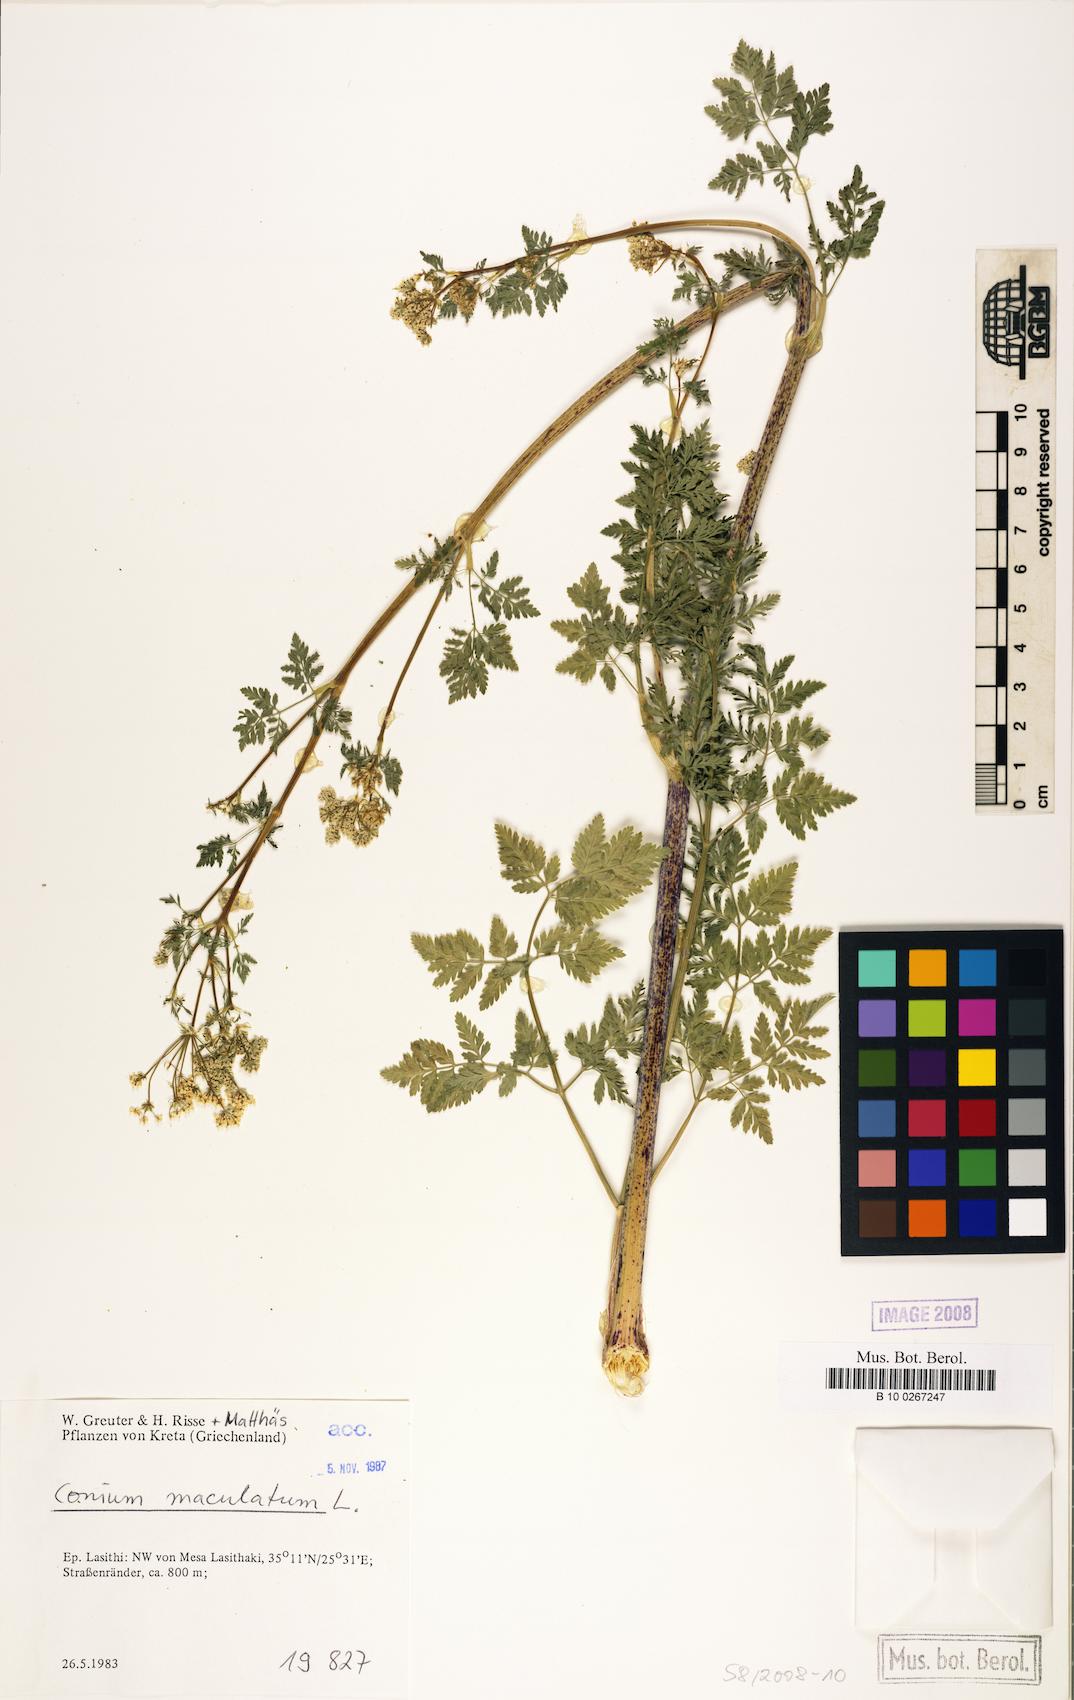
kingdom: Plantae
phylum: Tracheophyta
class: Magnoliopsida
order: Apiales
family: Apiaceae
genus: Conium
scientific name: Conium maculatum
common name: Hemlock
